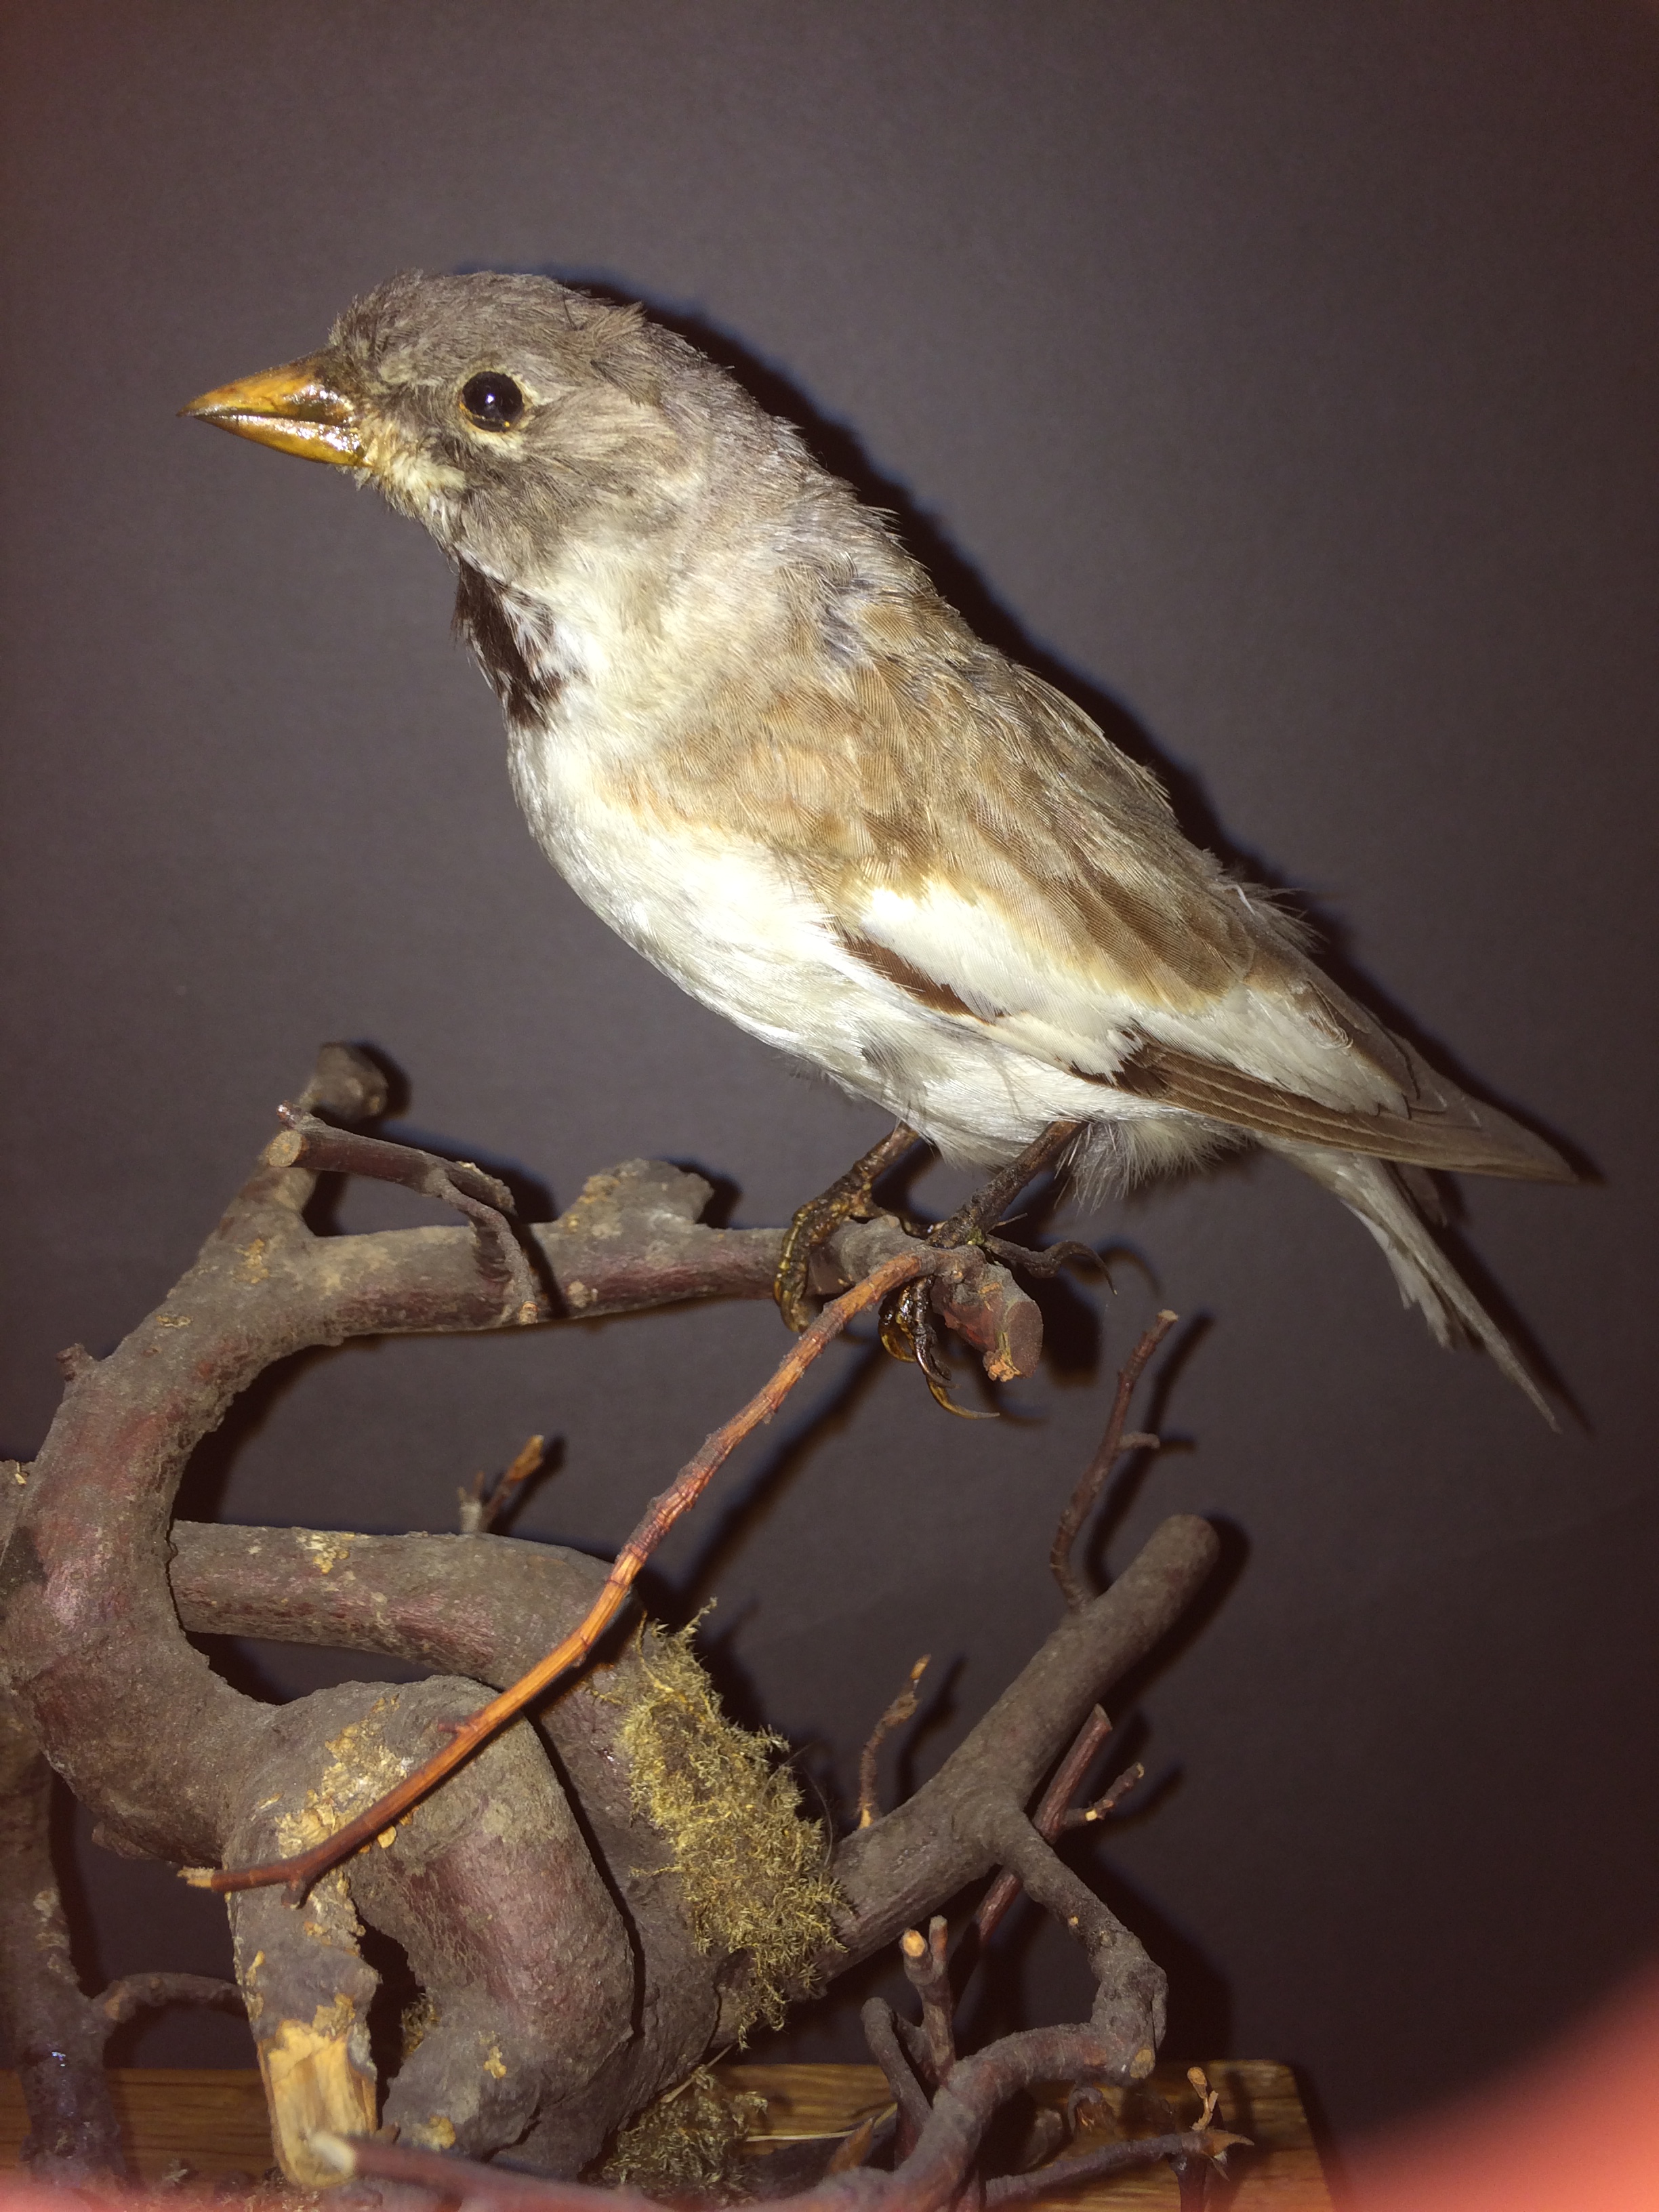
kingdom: Animalia
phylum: Chordata
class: Aves
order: Passeriformes
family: Passeridae
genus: Montifringilla
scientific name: Montifringilla nivalis
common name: White-winged snowfinch
